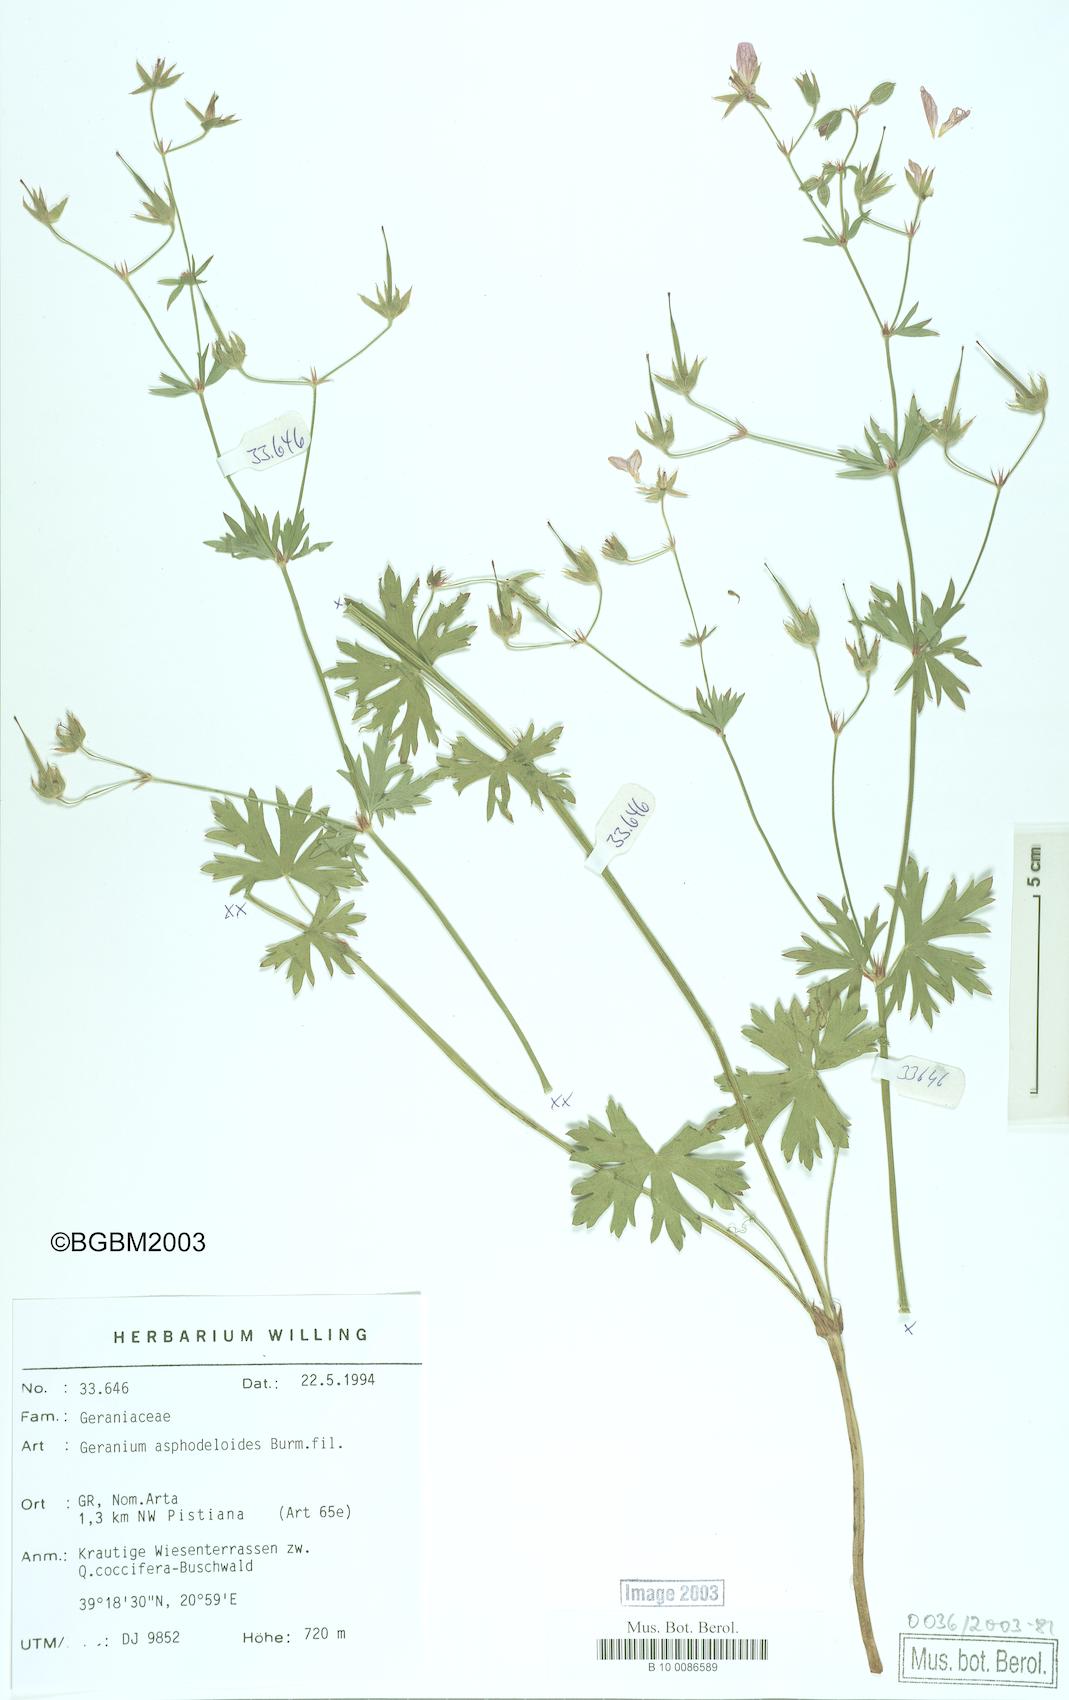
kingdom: Plantae
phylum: Tracheophyta
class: Magnoliopsida
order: Geraniales
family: Geraniaceae
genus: Geranium
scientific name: Geranium asphodeloides
